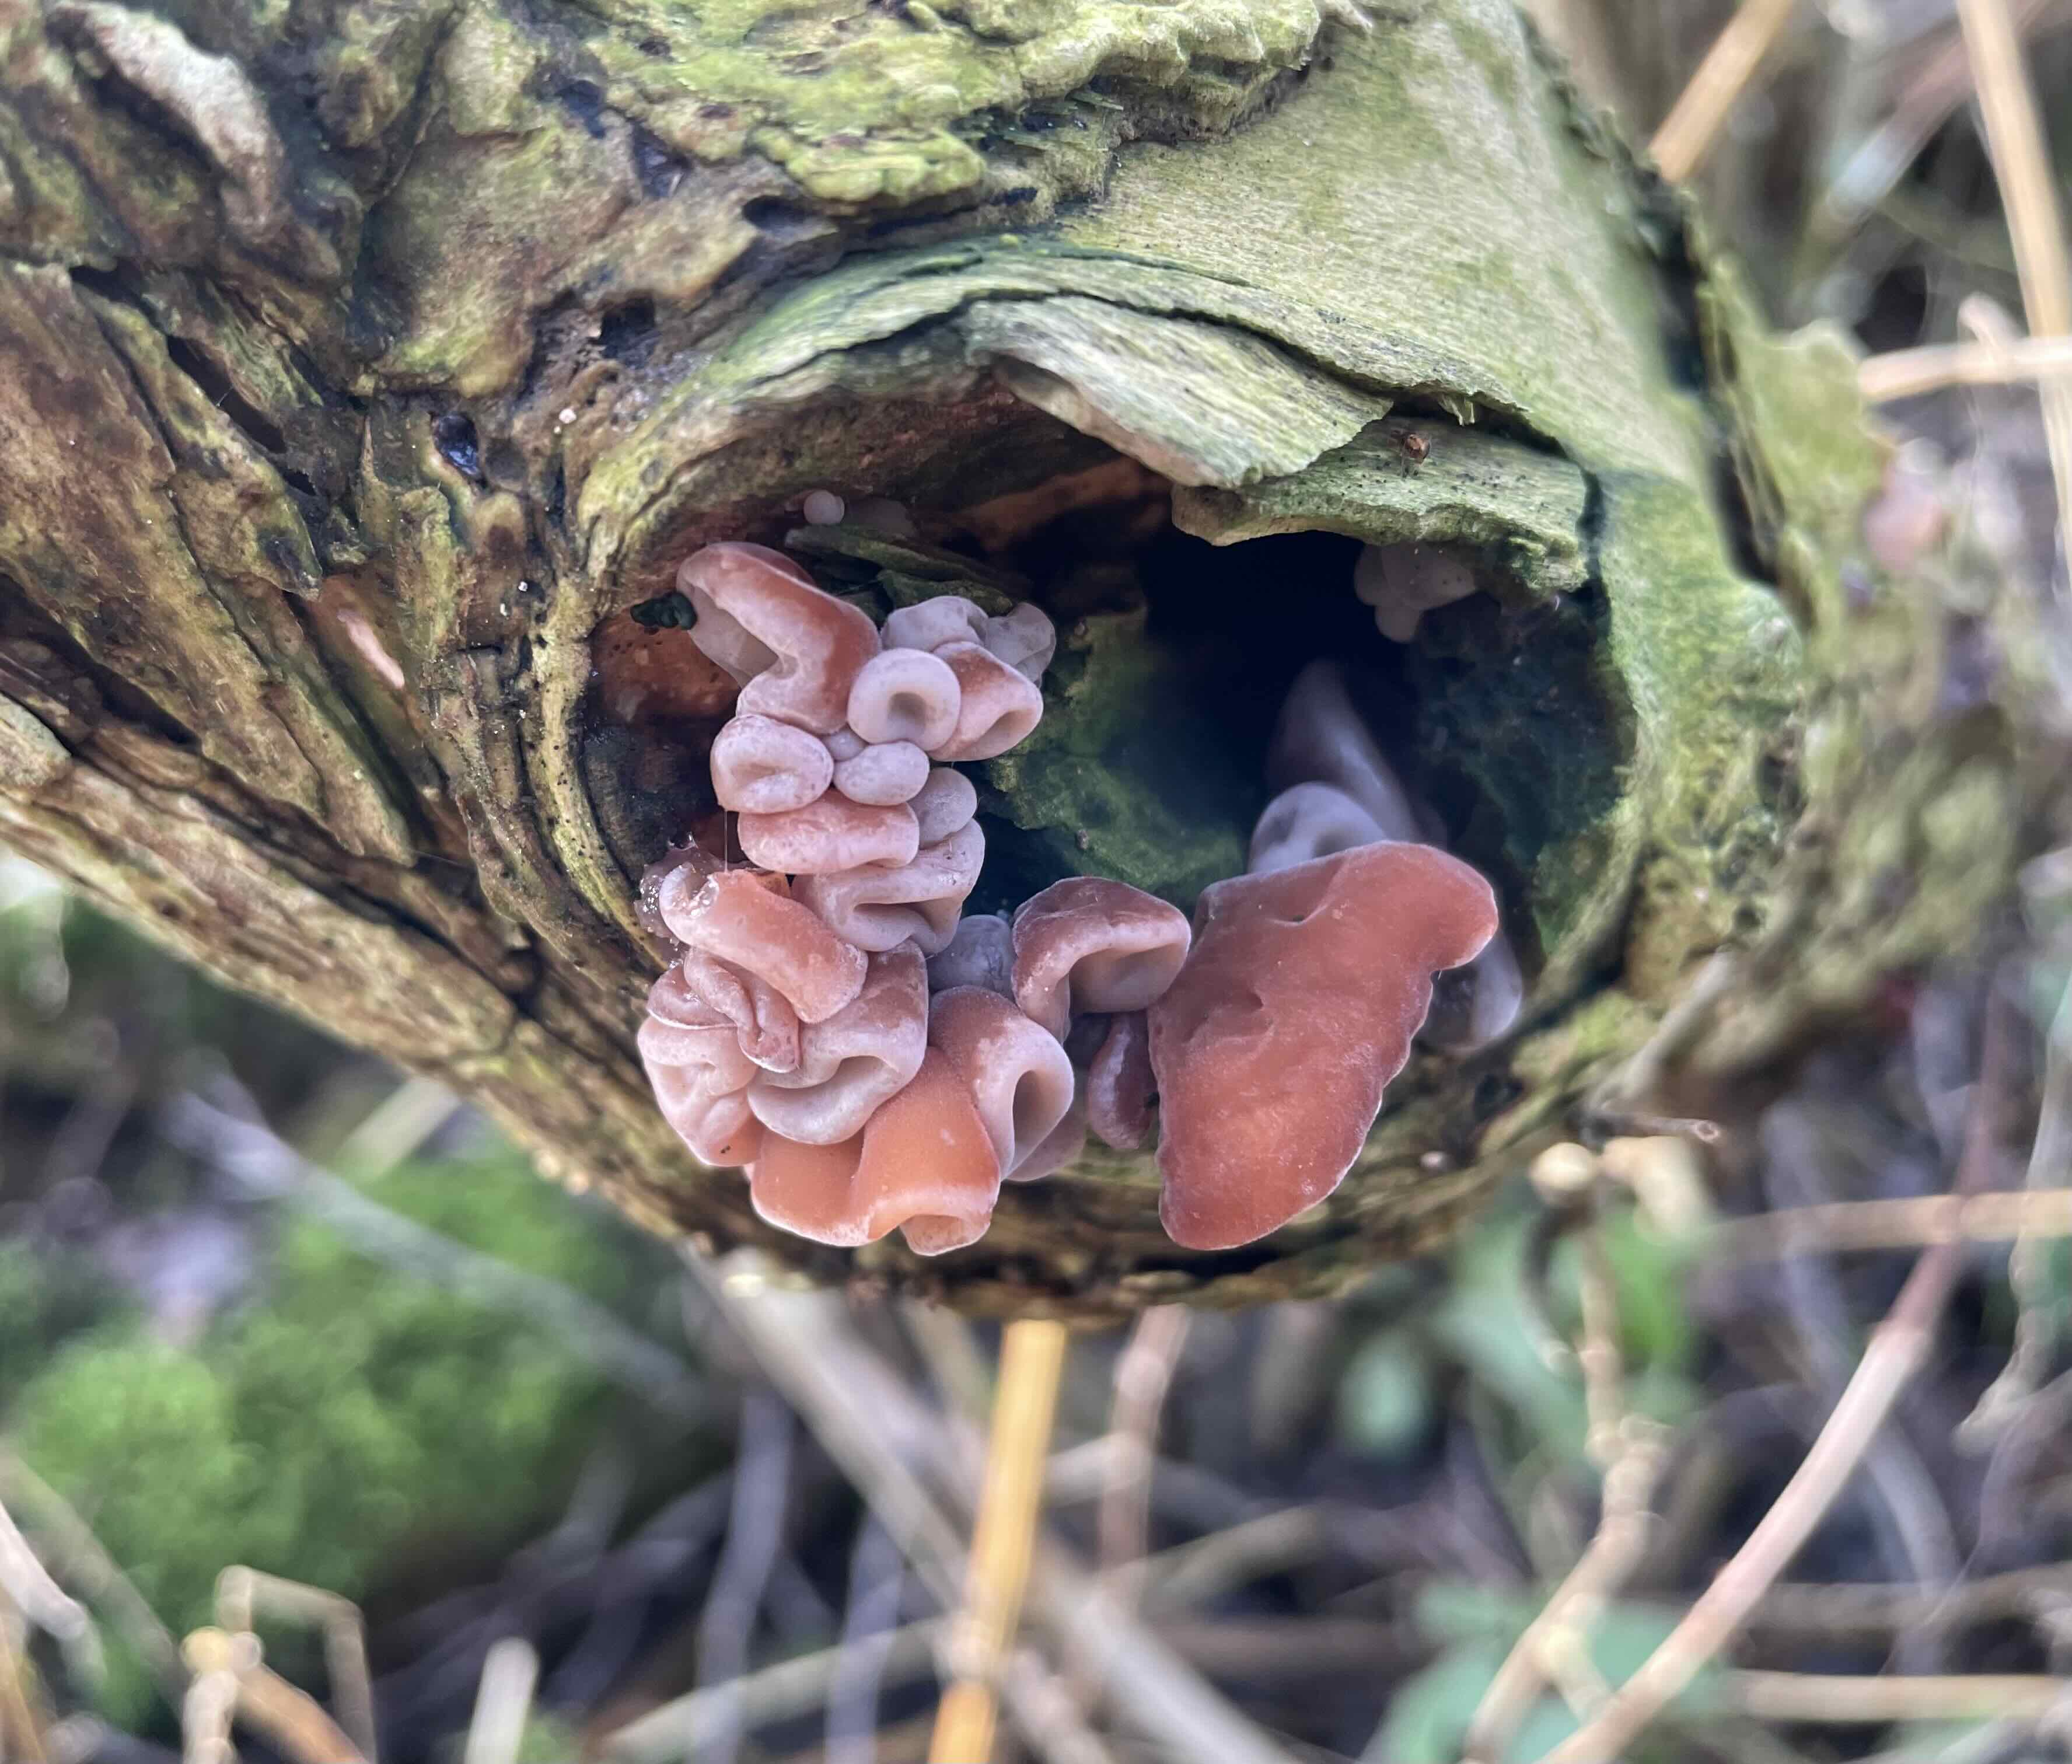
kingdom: Fungi
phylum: Basidiomycota
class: Agaricomycetes
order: Auriculariales
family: Auriculariaceae
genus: Auricularia
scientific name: Auricularia auricula-judae
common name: almindelig judasøre
